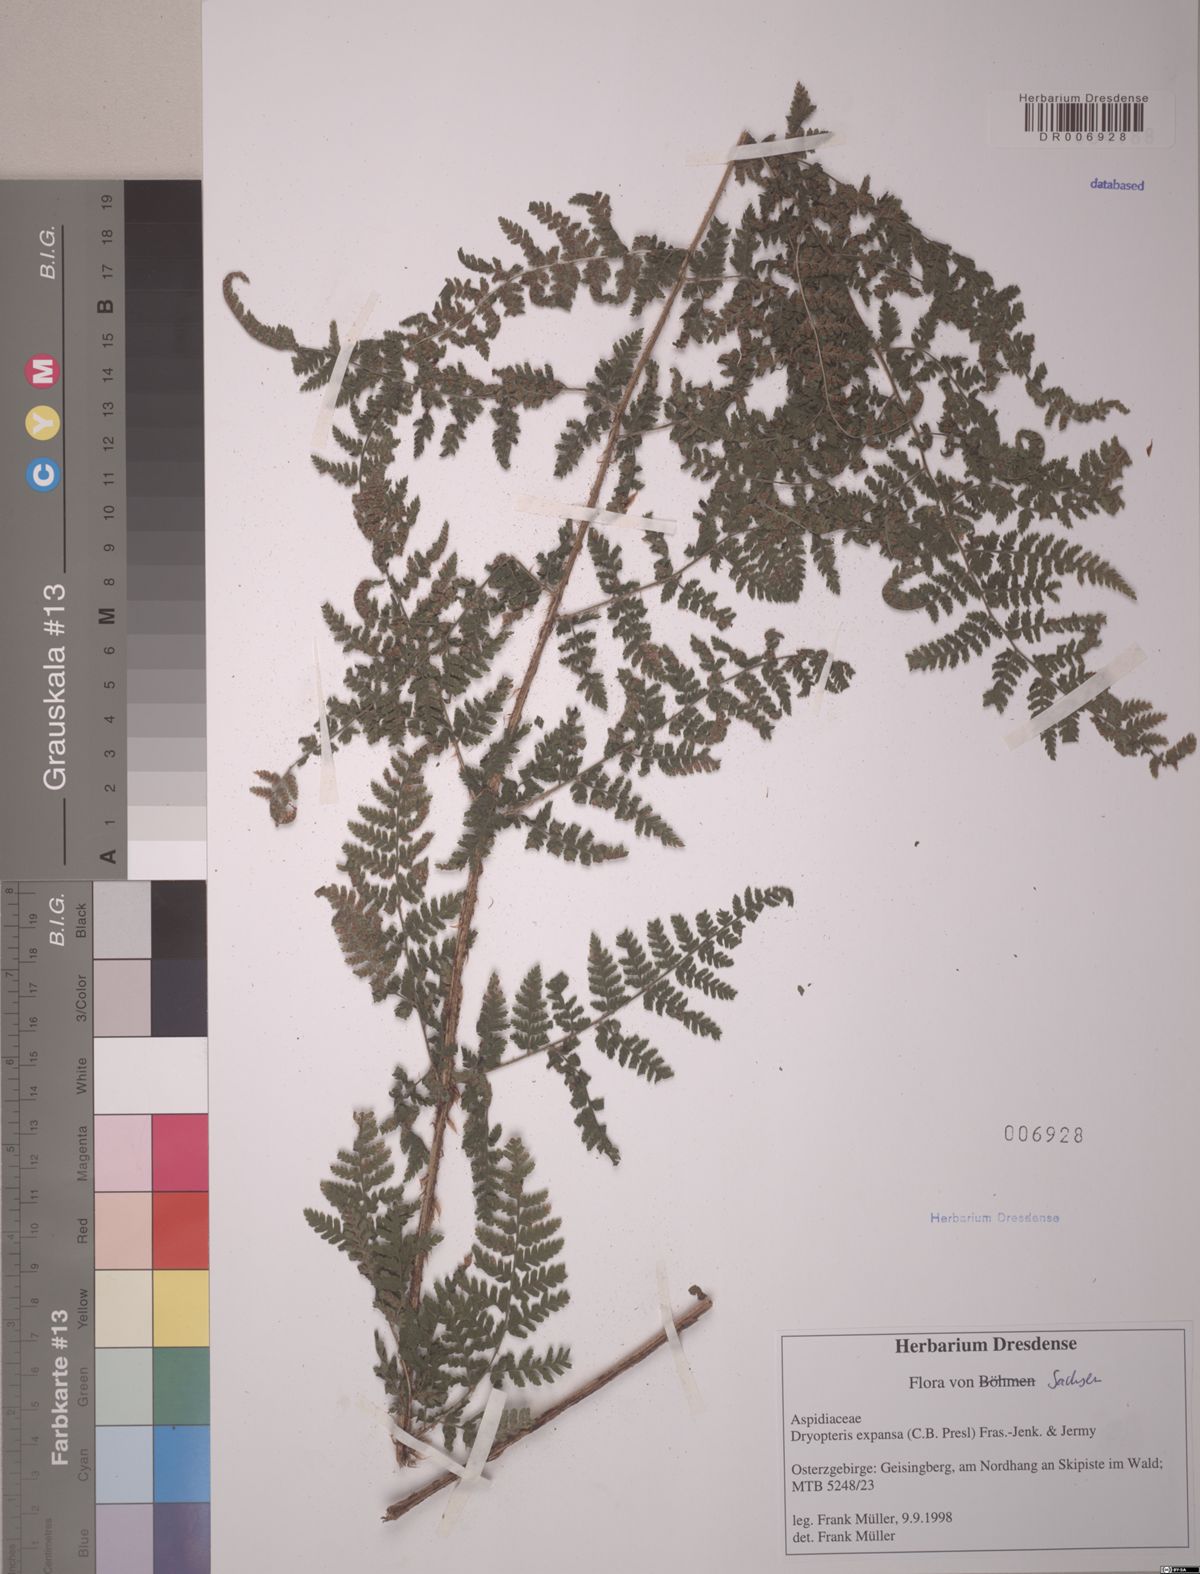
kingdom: Plantae
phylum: Tracheophyta
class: Polypodiopsida
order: Polypodiales
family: Dryopteridaceae
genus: Dryopteris
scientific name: Dryopteris expansa
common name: Northern buckler fern
